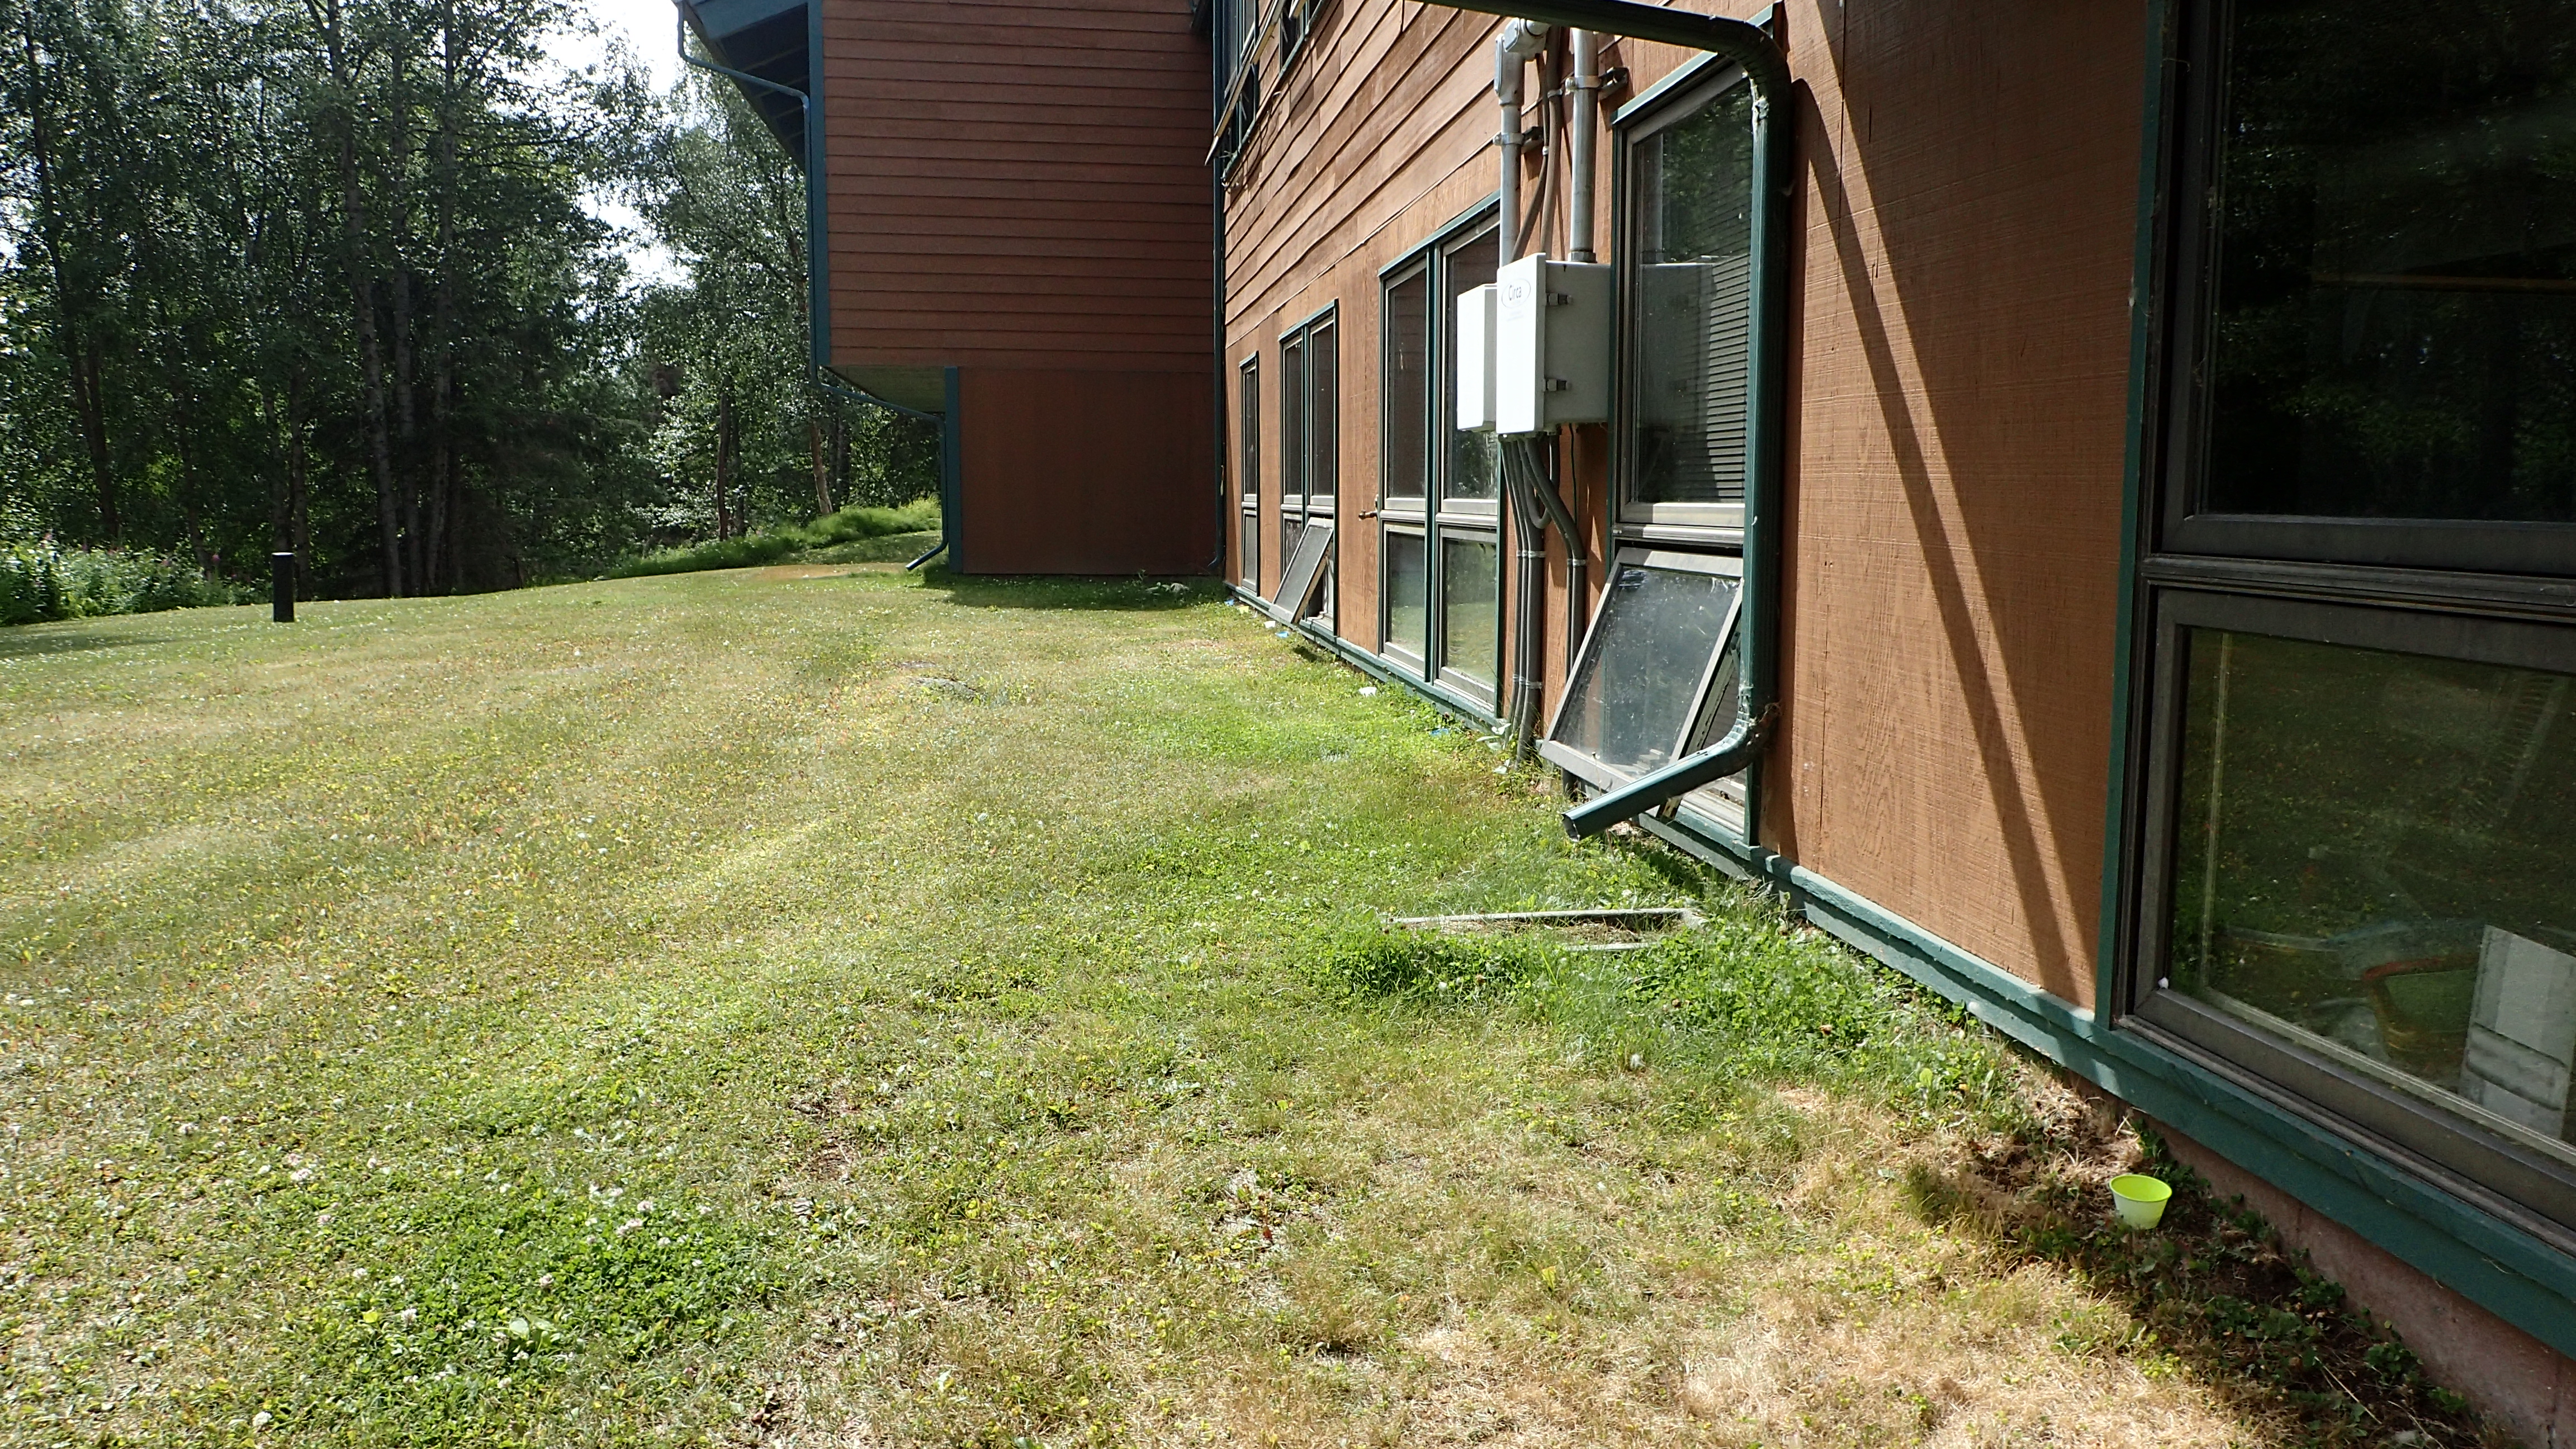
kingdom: Animalia
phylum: Arthropoda
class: Insecta
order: Hemiptera
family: Cicadellidae
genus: Evacanthus
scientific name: Evacanthus
